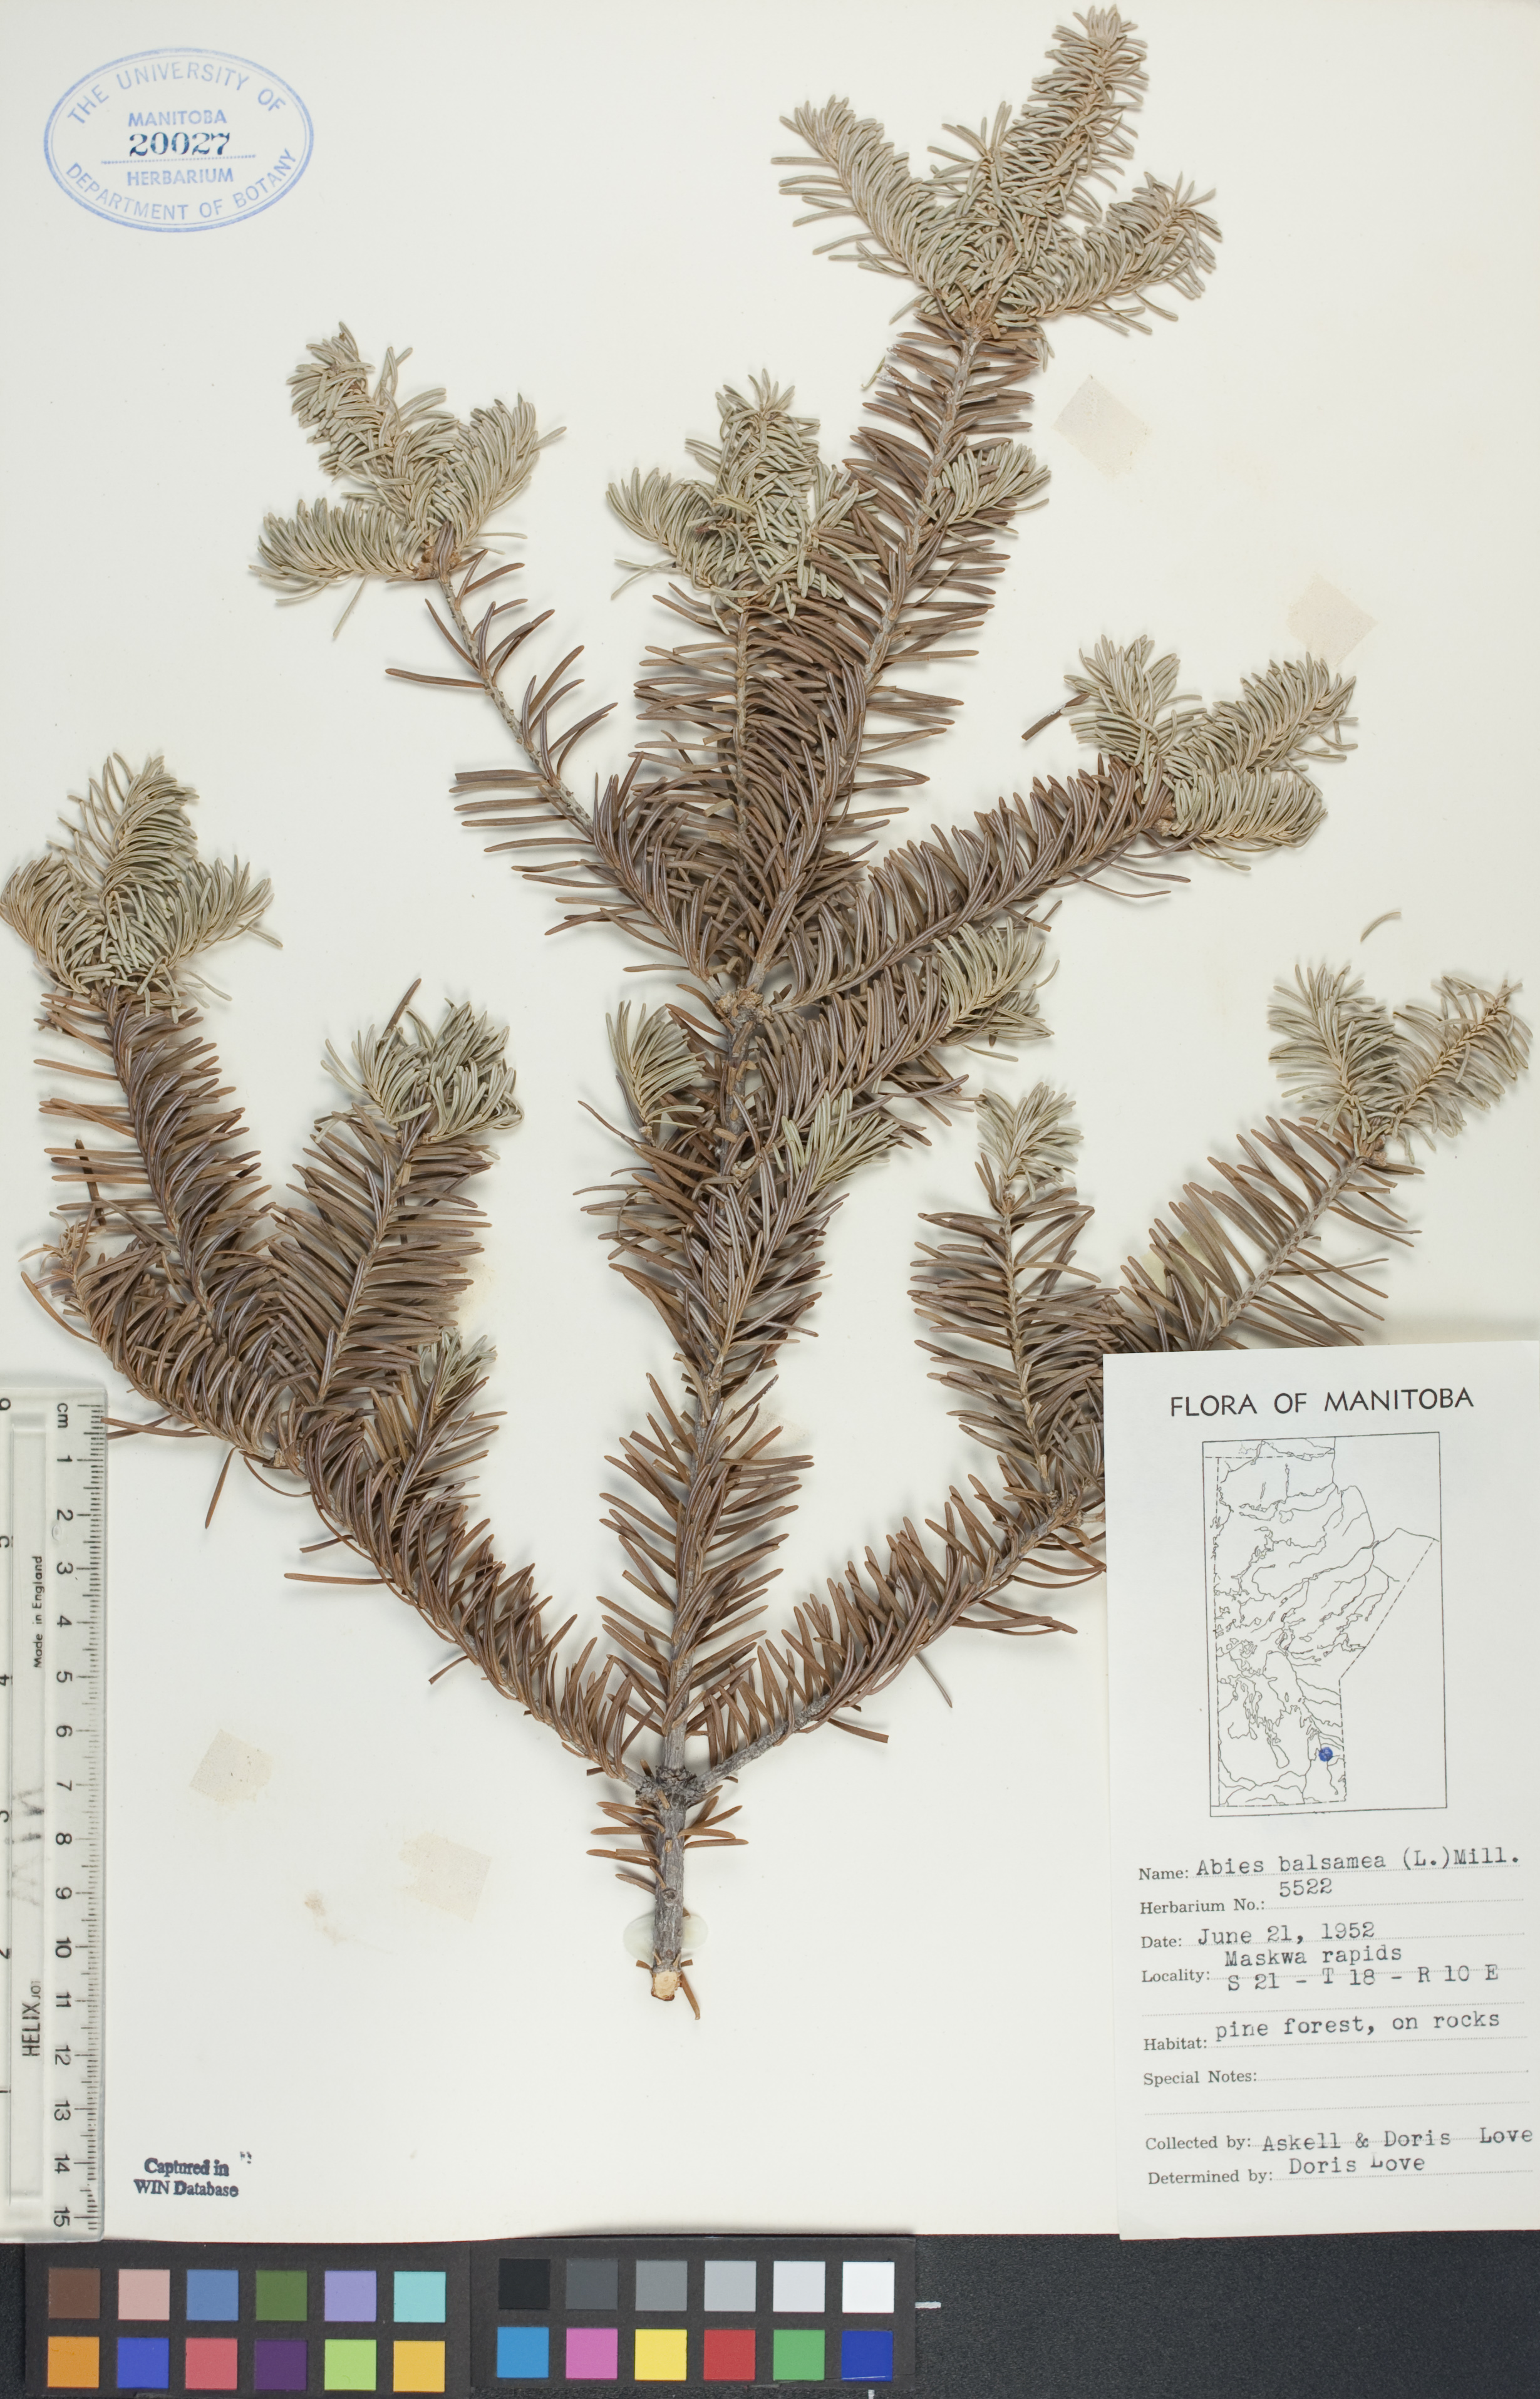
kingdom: Plantae
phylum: Tracheophyta
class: Pinopsida
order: Pinales
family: Pinaceae
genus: Abies
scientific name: Abies balsamea
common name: Balsam fir
